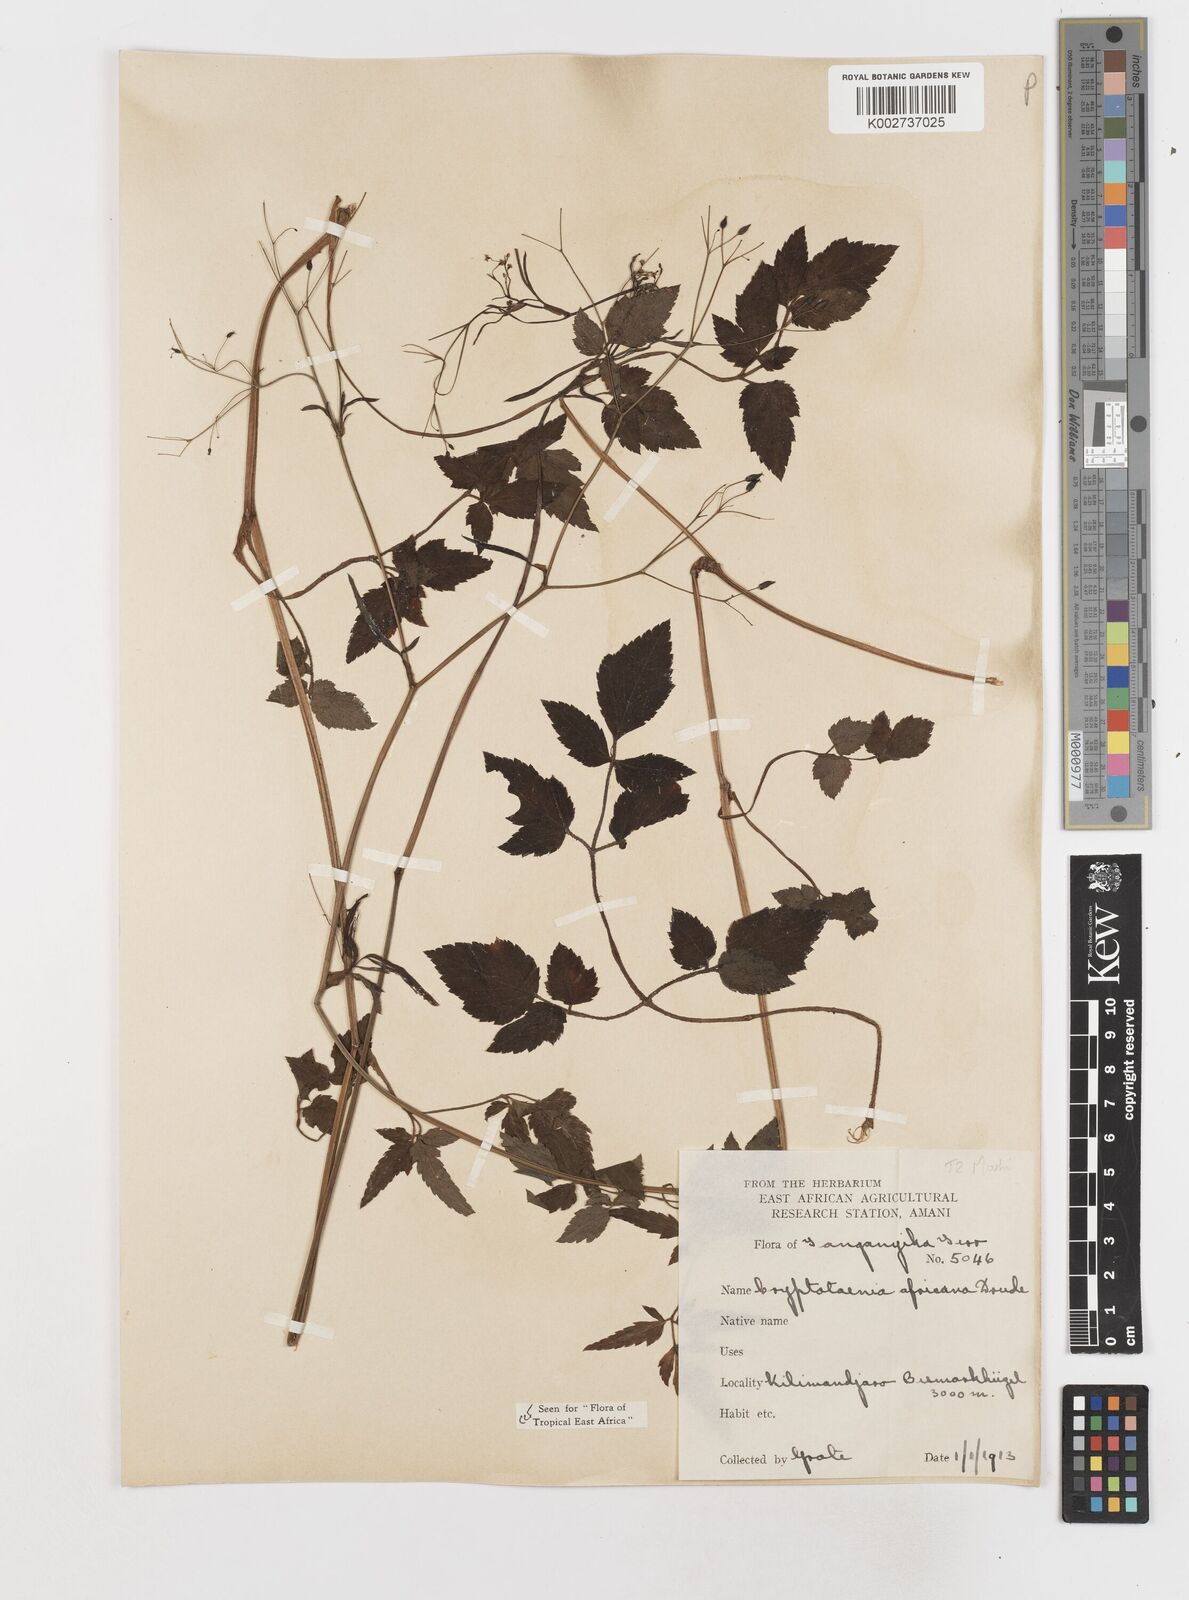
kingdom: Plantae
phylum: Tracheophyta
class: Magnoliopsida
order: Apiales
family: Apiaceae
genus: Cryptotaenia
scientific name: Cryptotaenia africana
